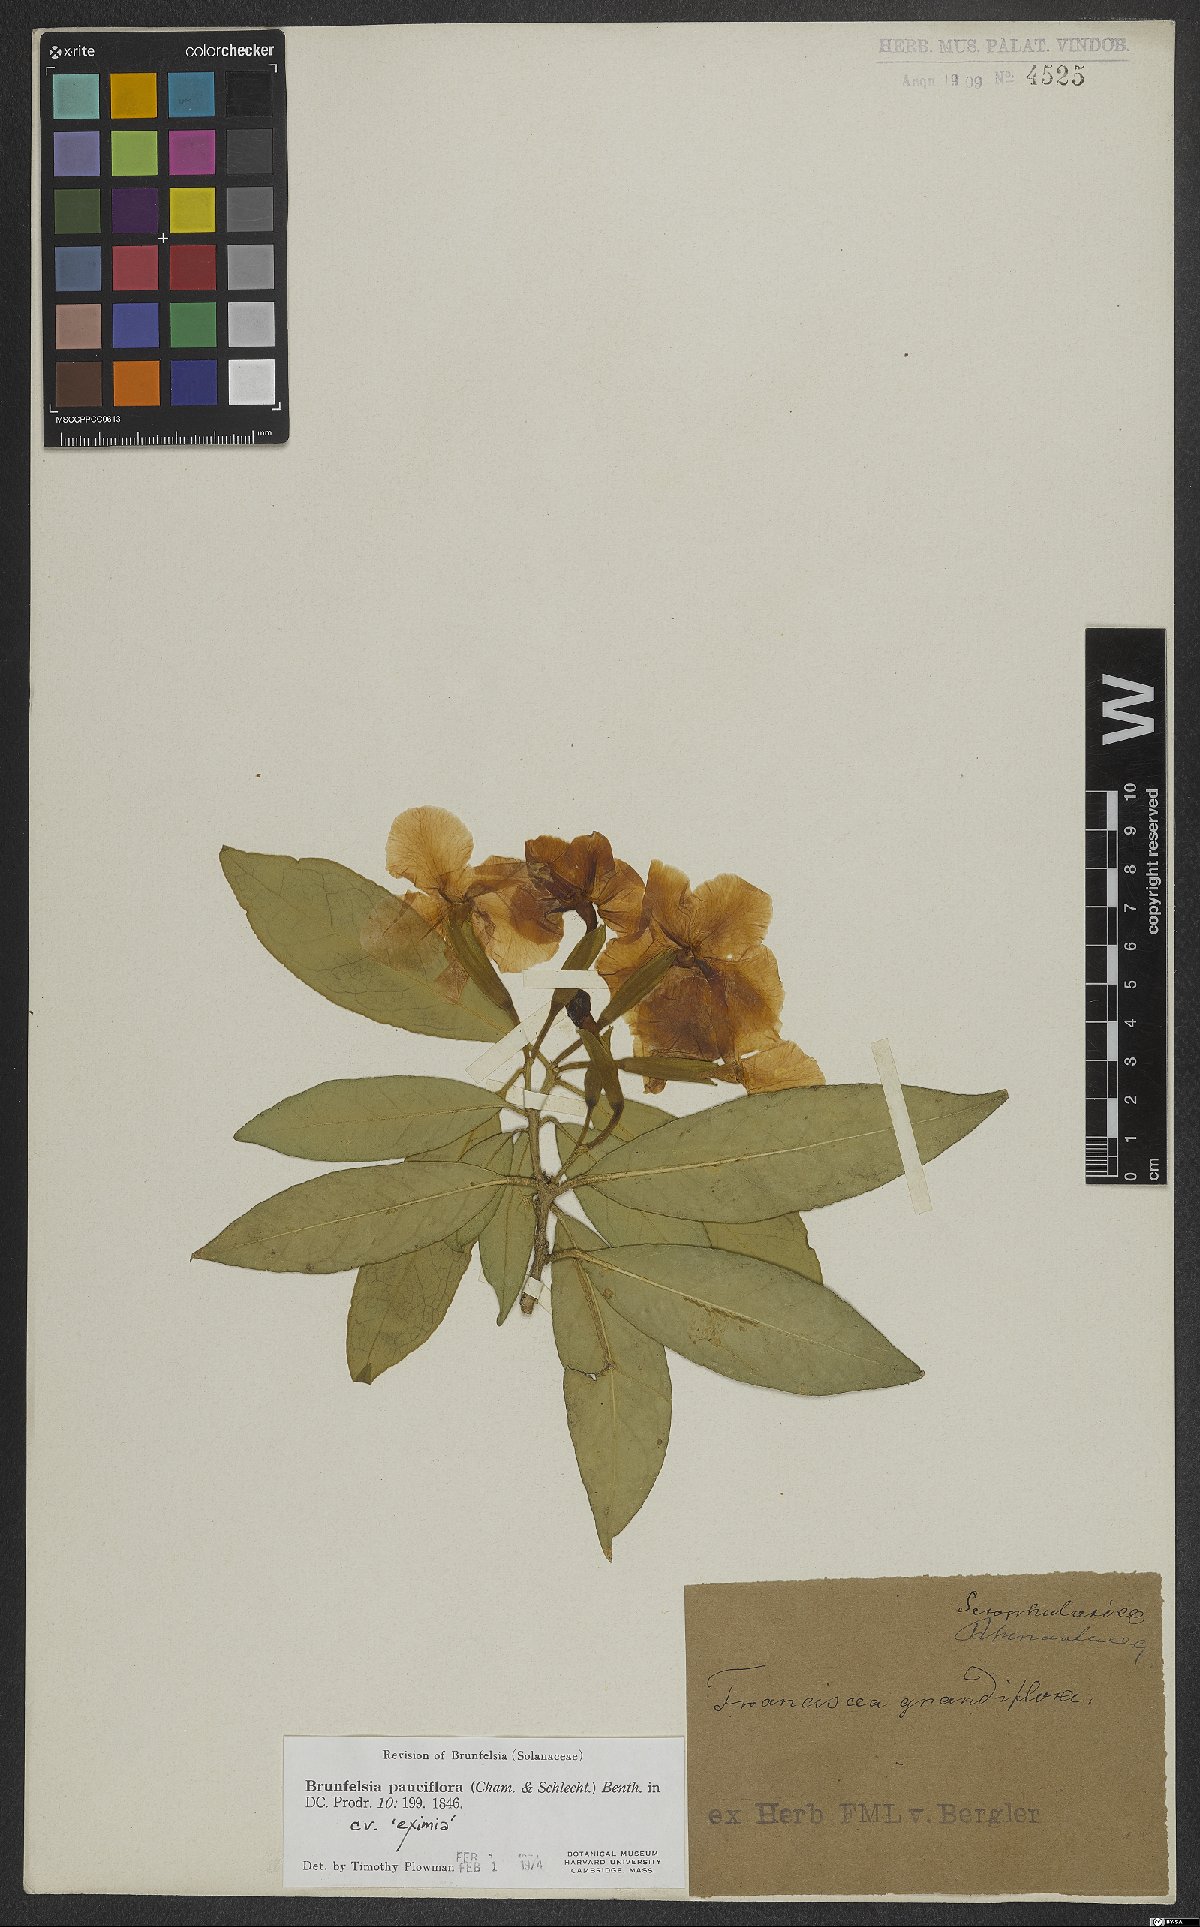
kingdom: Plantae
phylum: Tracheophyta
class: Magnoliopsida
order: Solanales
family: Solanaceae
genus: Brunfelsia
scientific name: Brunfelsia pauciflora
